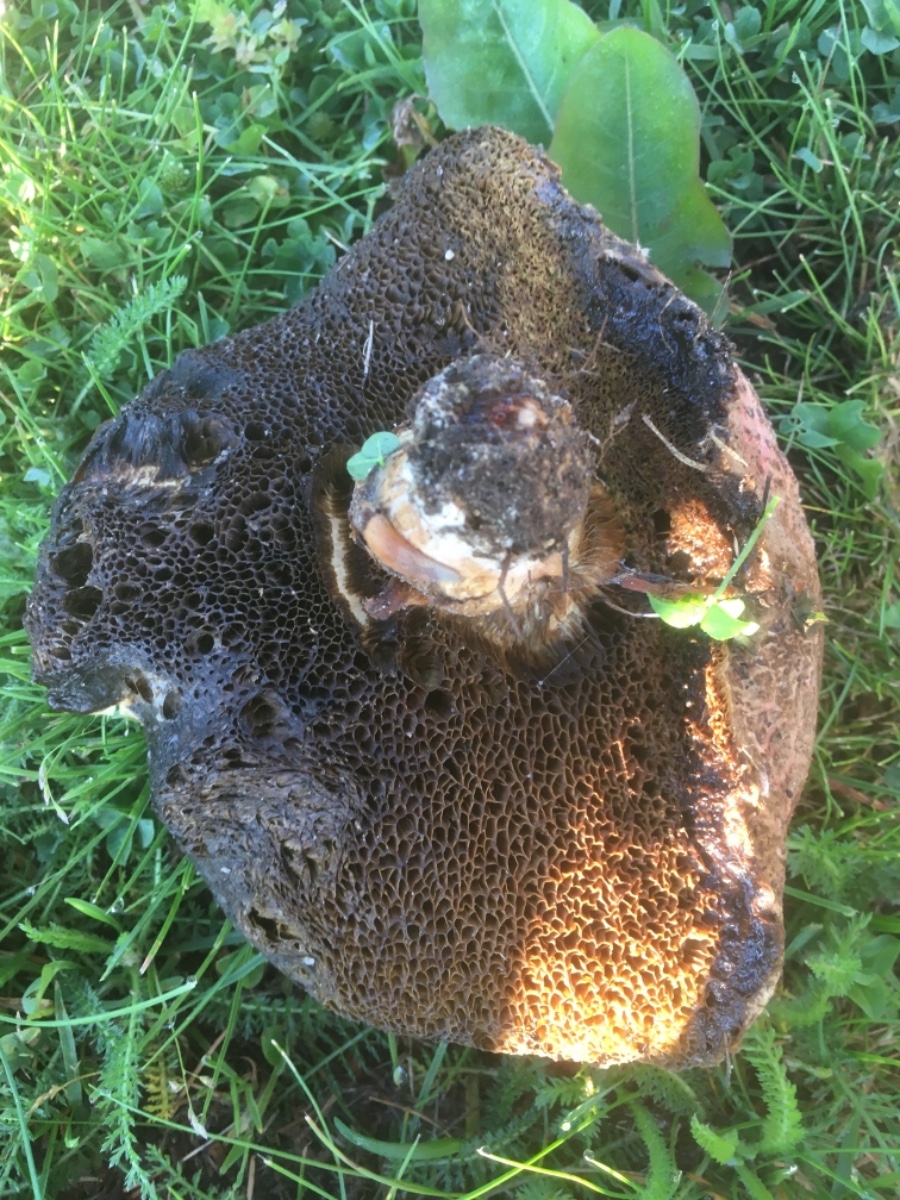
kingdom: Fungi
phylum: Basidiomycota
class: Agaricomycetes
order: Boletales
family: Boletaceae
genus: Xerocomellus
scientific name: Xerocomellus
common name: dværgrørhat
